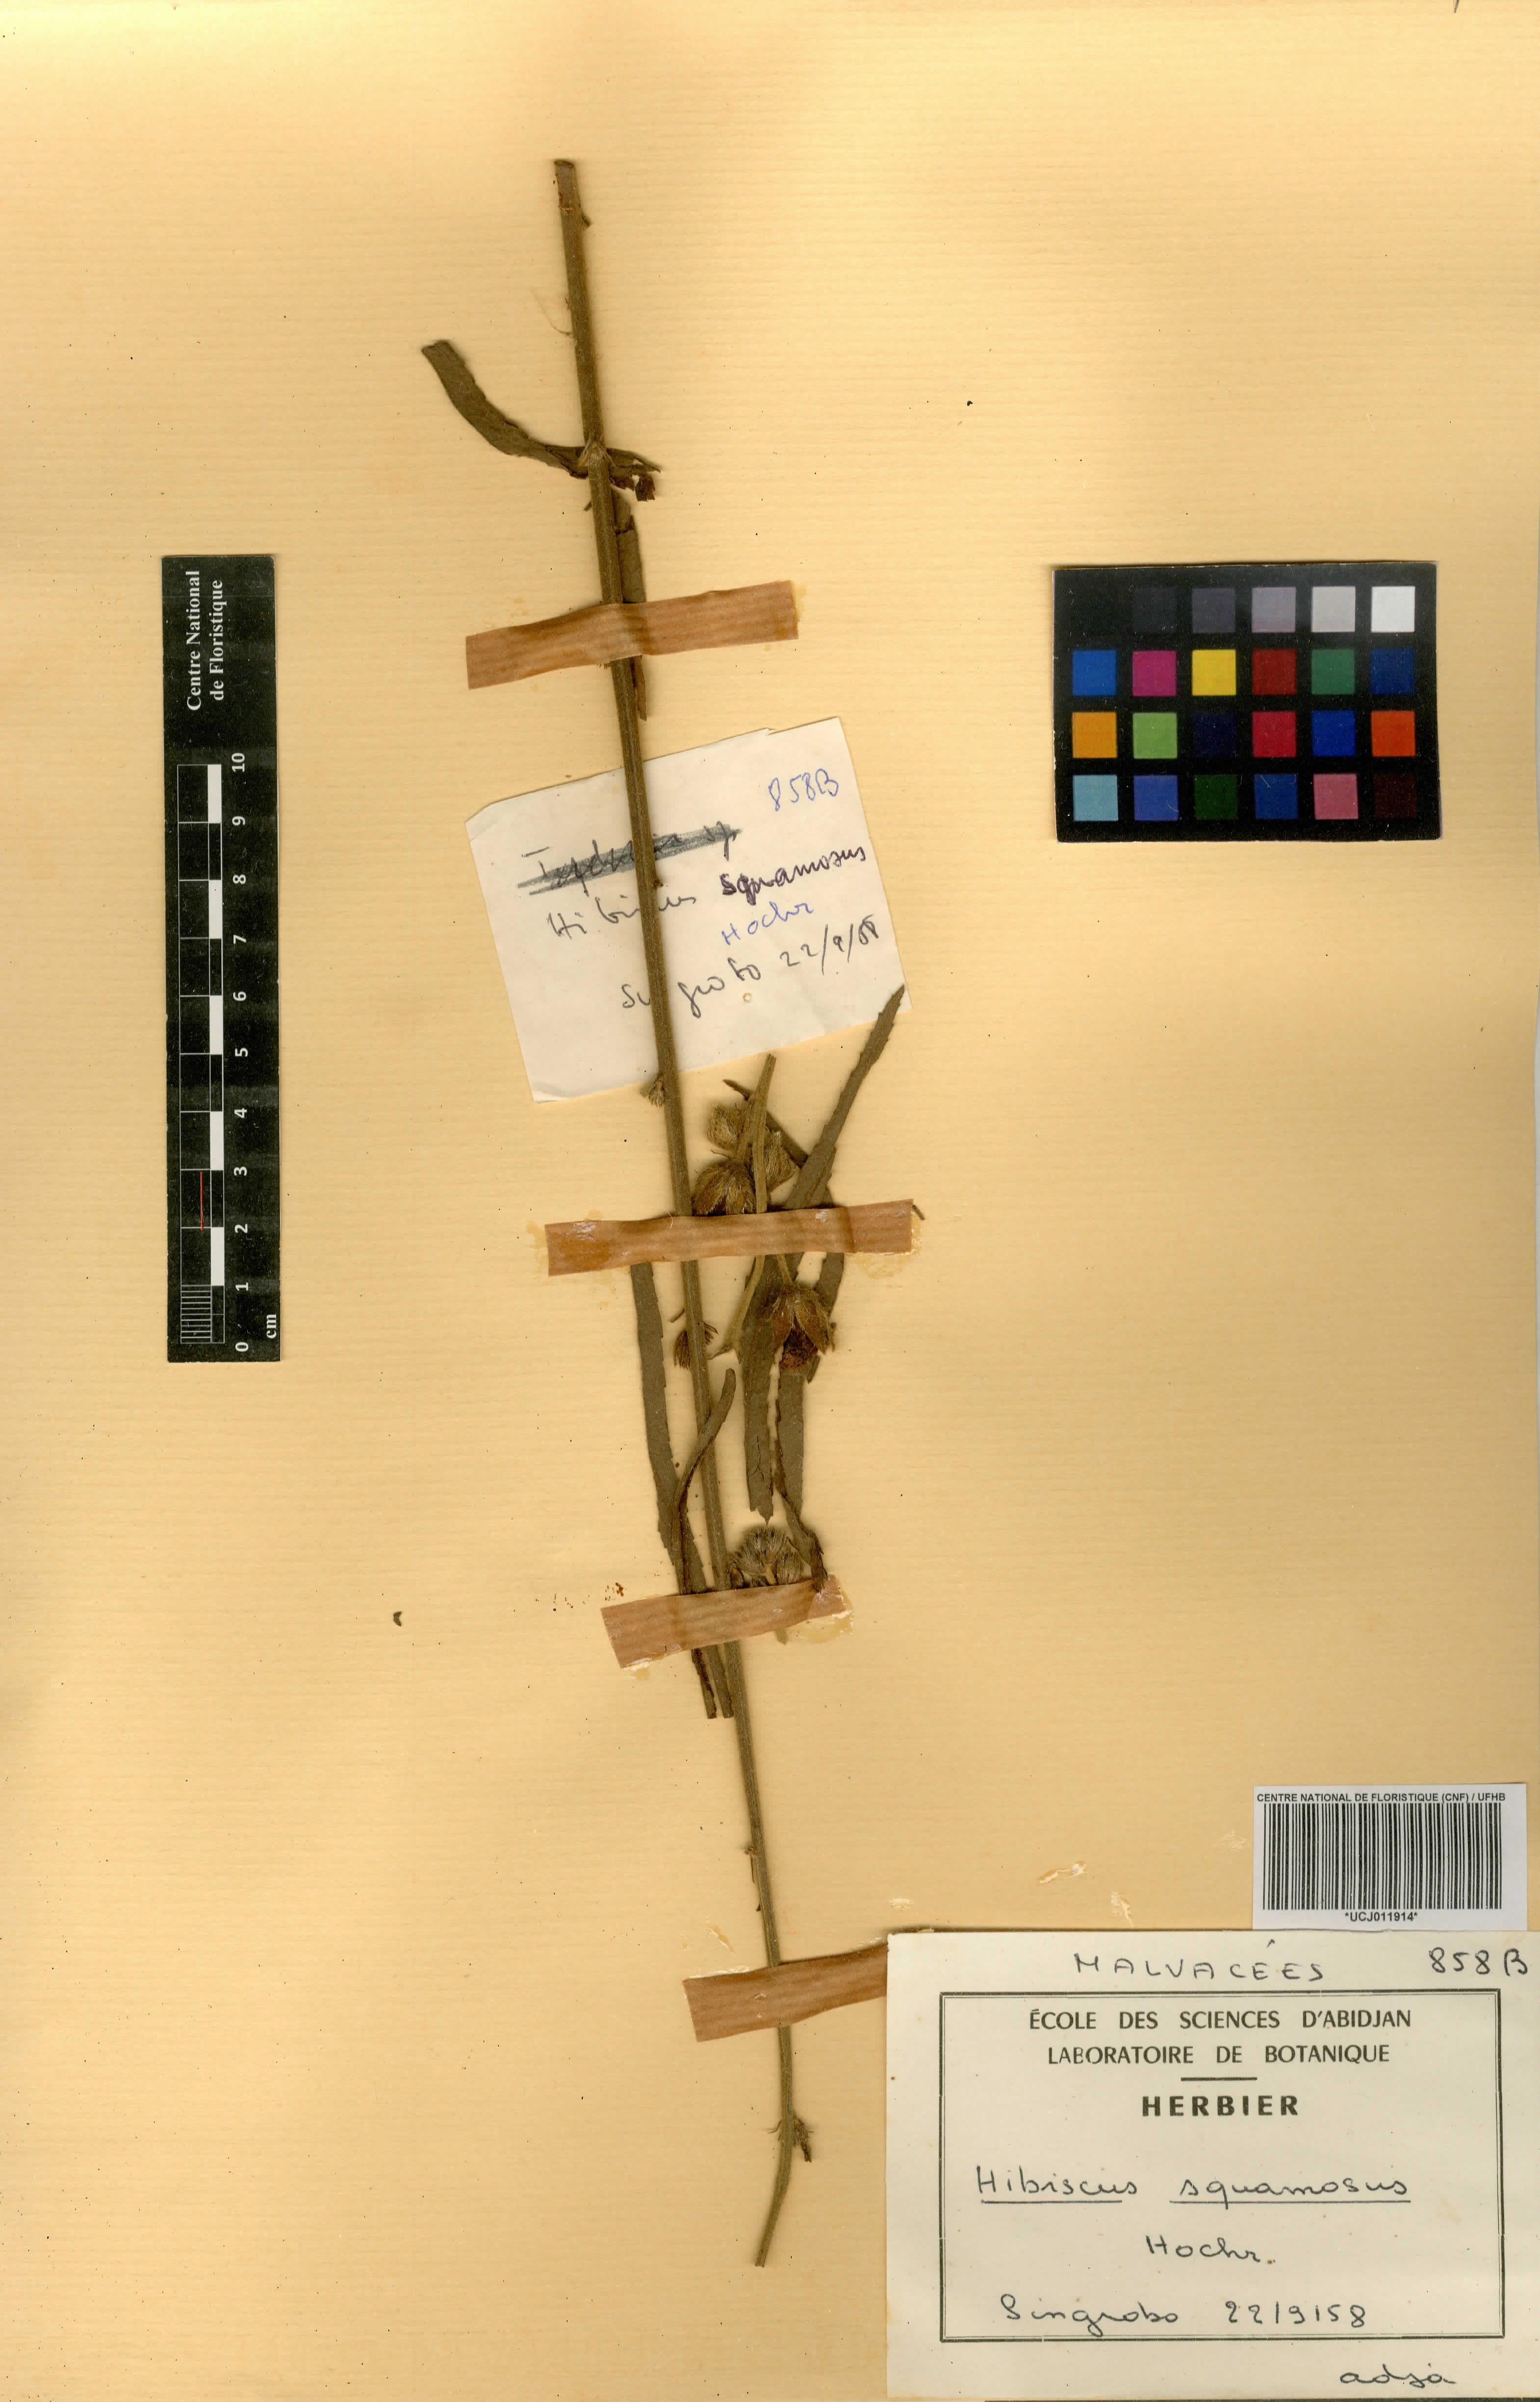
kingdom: Plantae
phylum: Tracheophyta
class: Magnoliopsida
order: Malvales
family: Malvaceae
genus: Hibiscus
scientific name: Hibiscus squamosus
